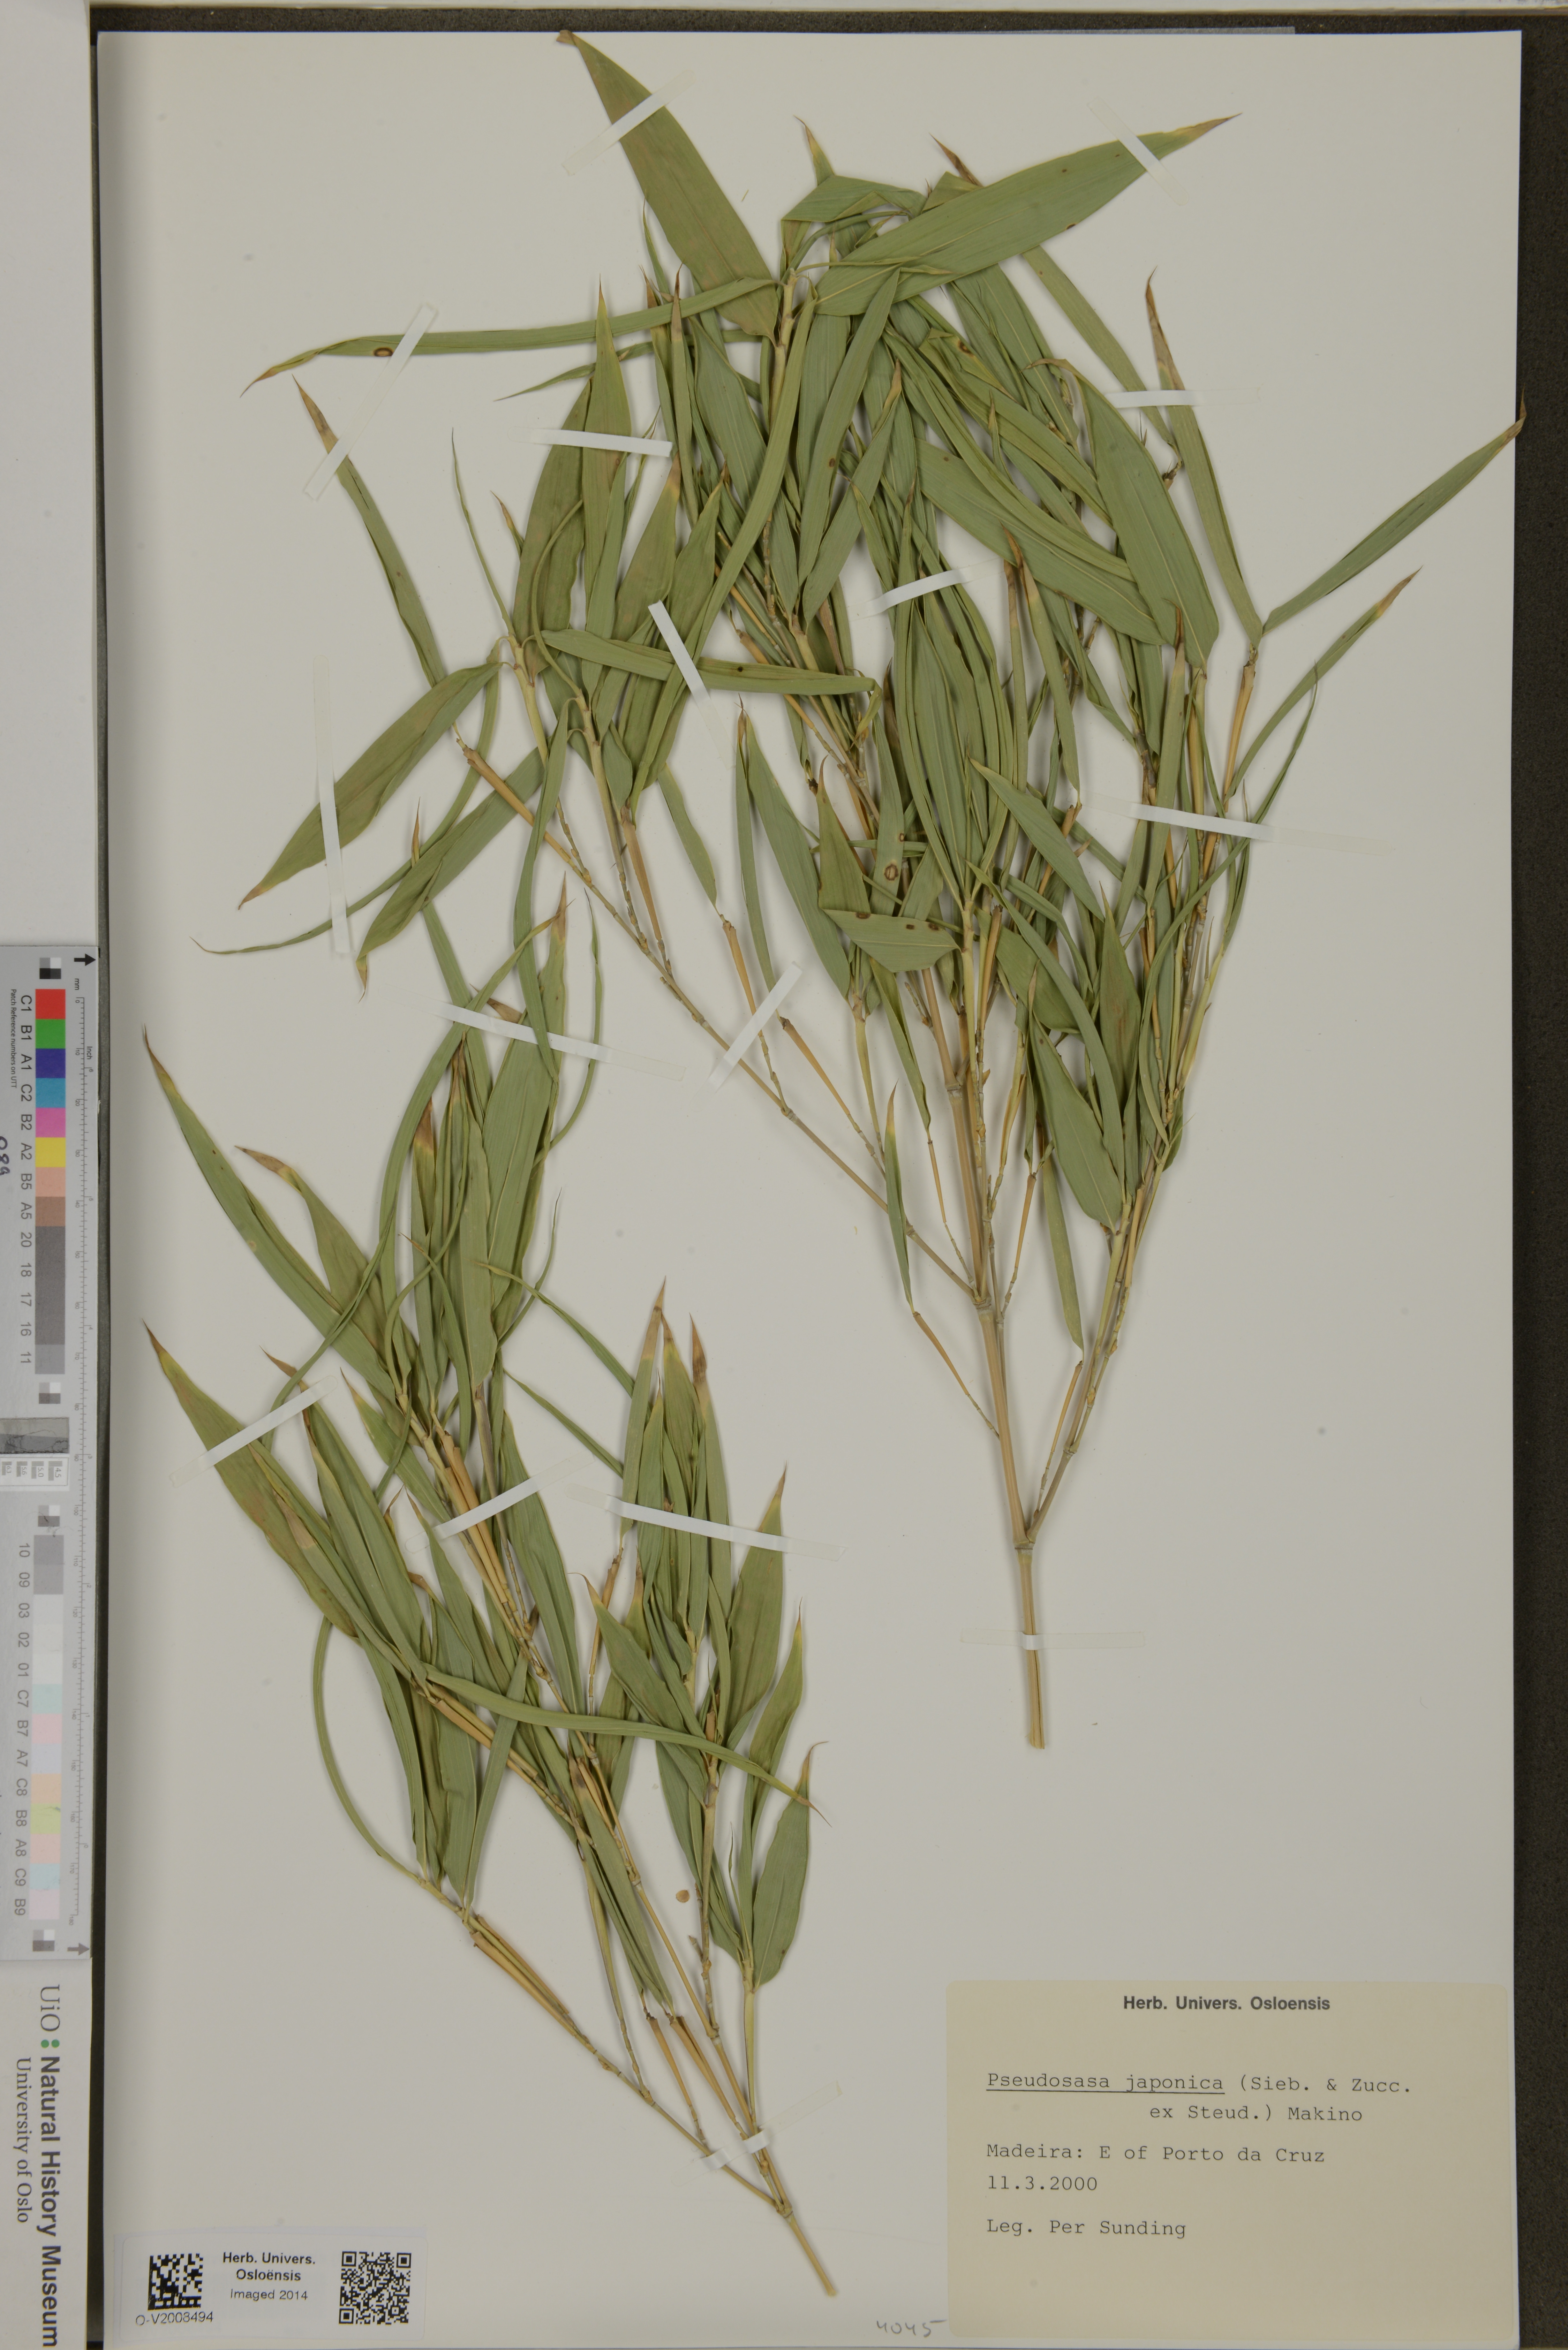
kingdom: Plantae
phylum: Tracheophyta
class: Liliopsida
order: Poales
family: Poaceae
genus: Pseudosasa
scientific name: Pseudosasa japonica
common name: Arrow bamboo
